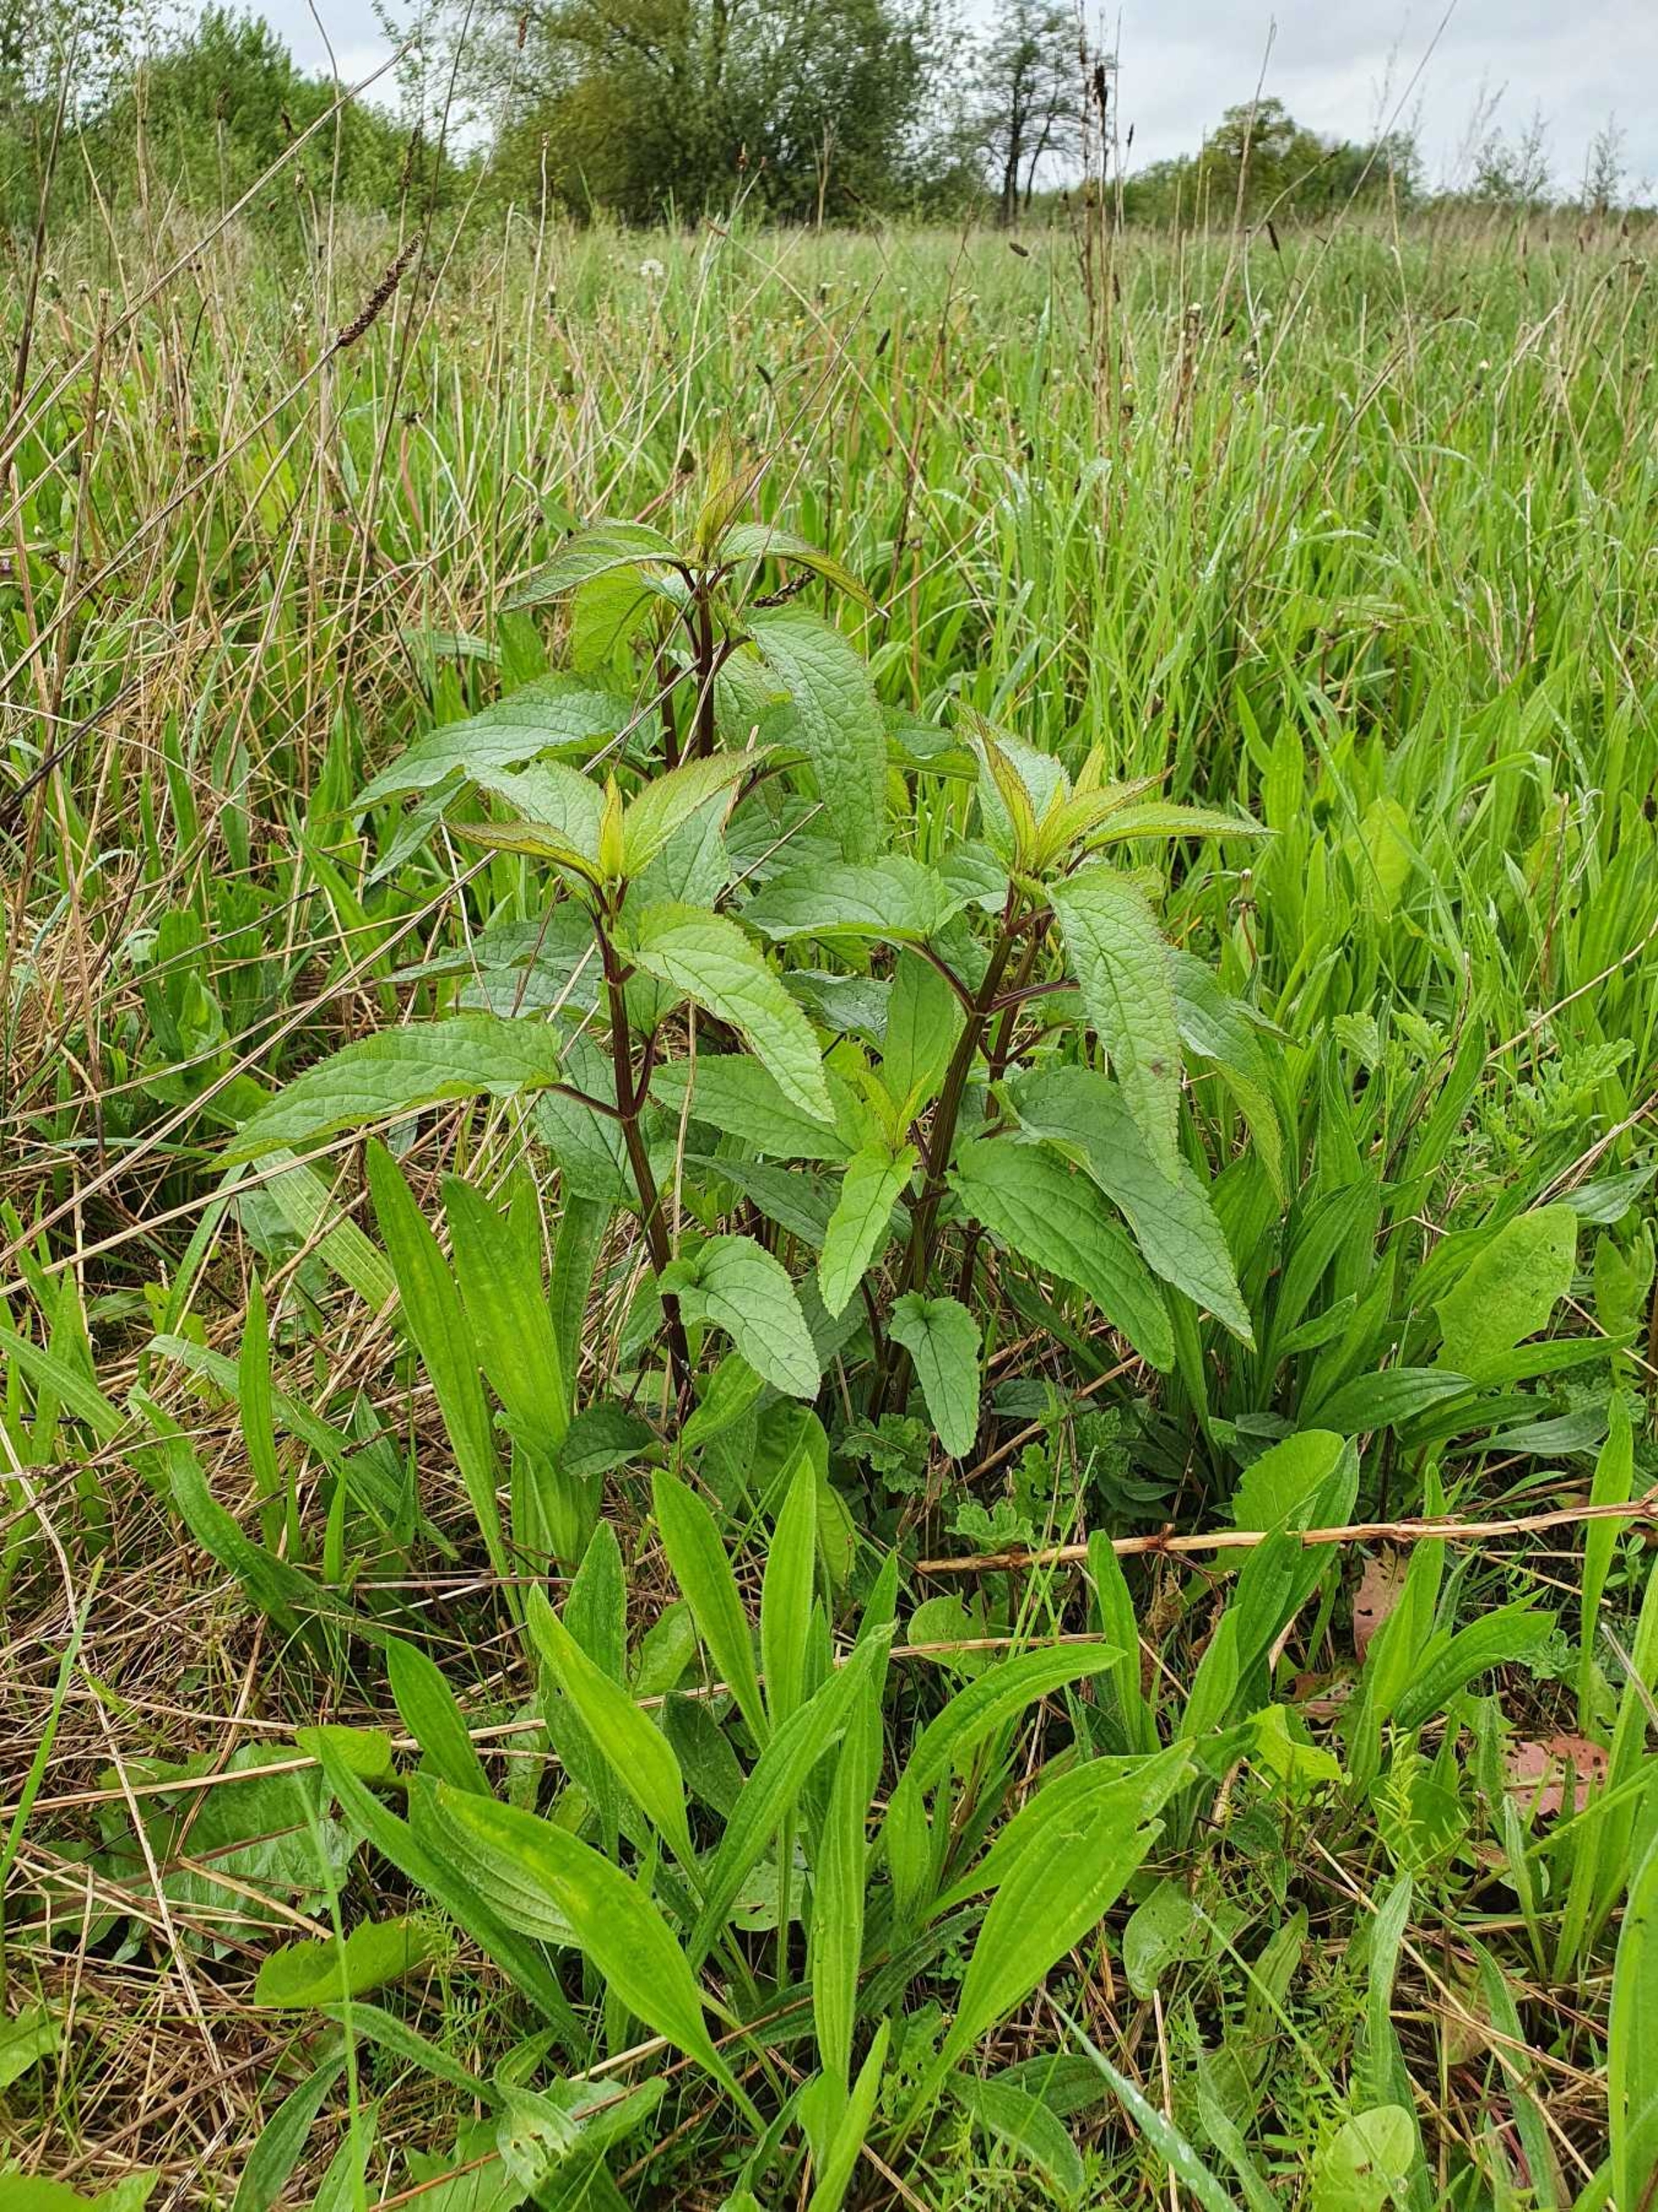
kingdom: Plantae
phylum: Tracheophyta
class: Magnoliopsida
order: Lamiales
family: Scrophulariaceae
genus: Scrophularia
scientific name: Scrophularia nodosa
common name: Knoldet brunrod
